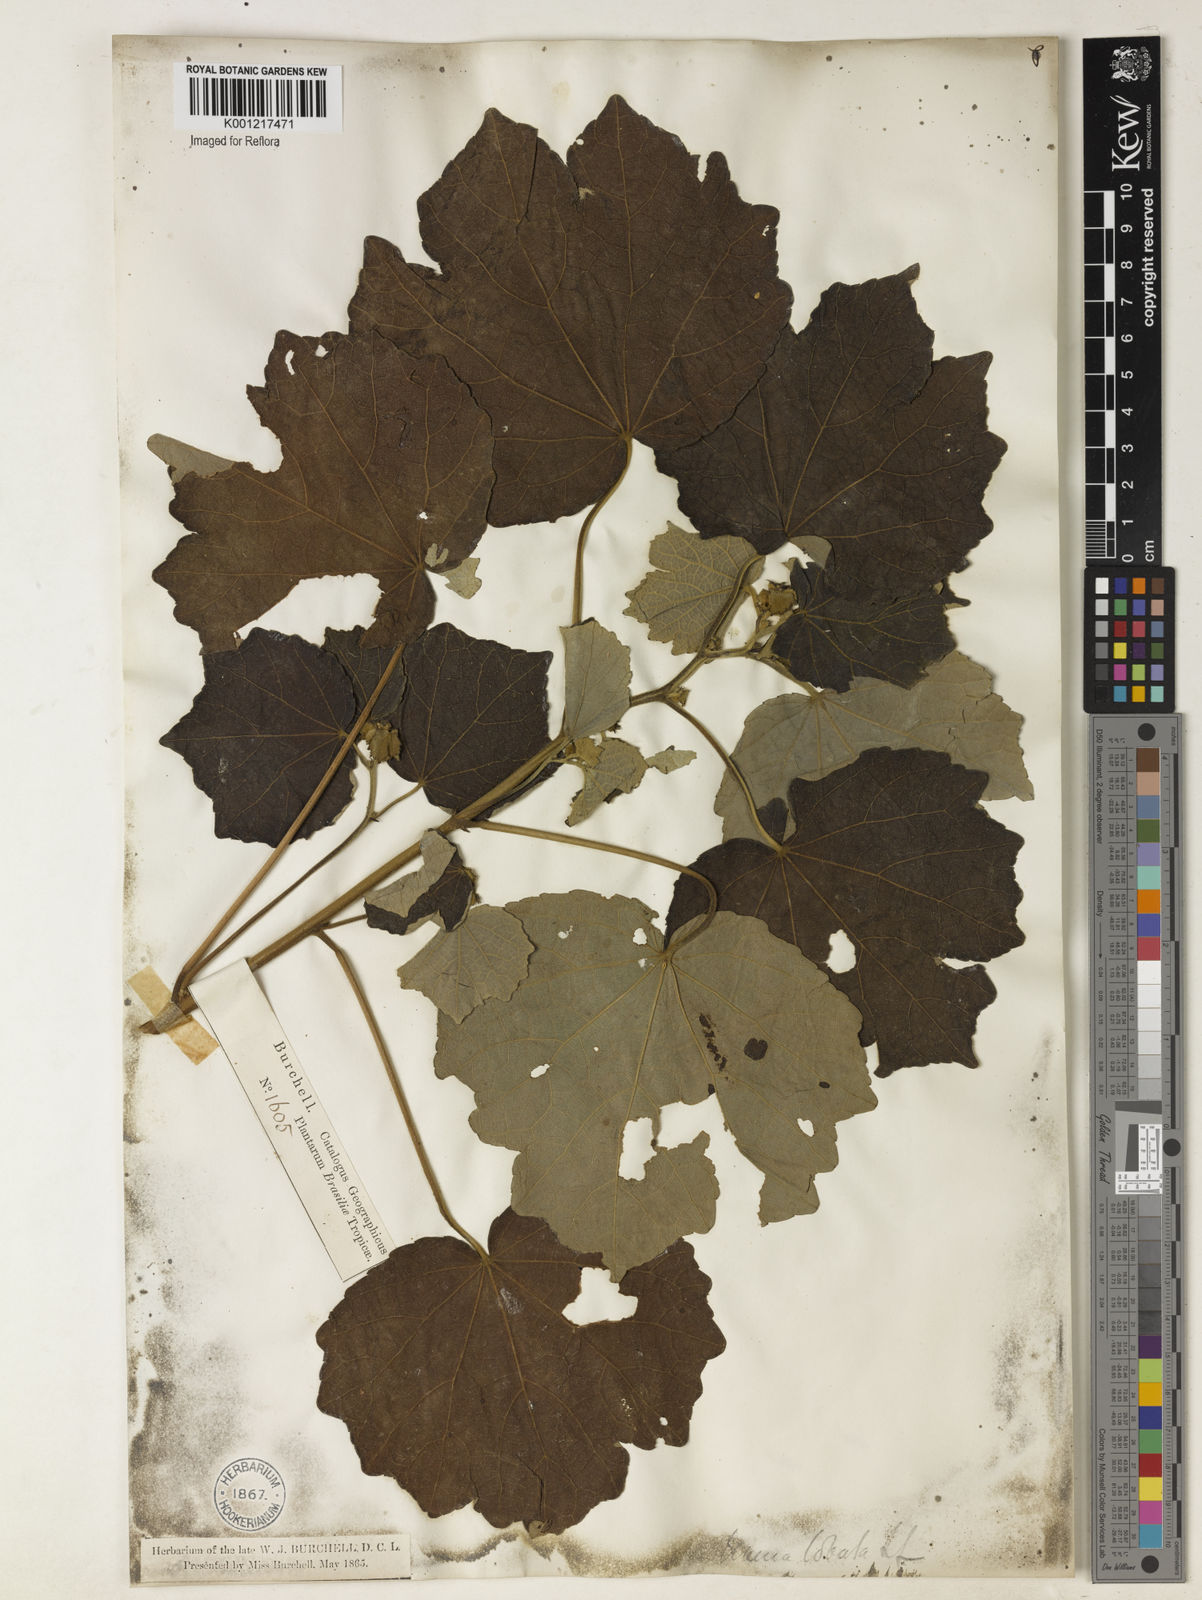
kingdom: Plantae
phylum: Tracheophyta
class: Magnoliopsida
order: Malvales
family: Malvaceae
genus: Urena
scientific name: Urena lobata
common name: Caesarweed
